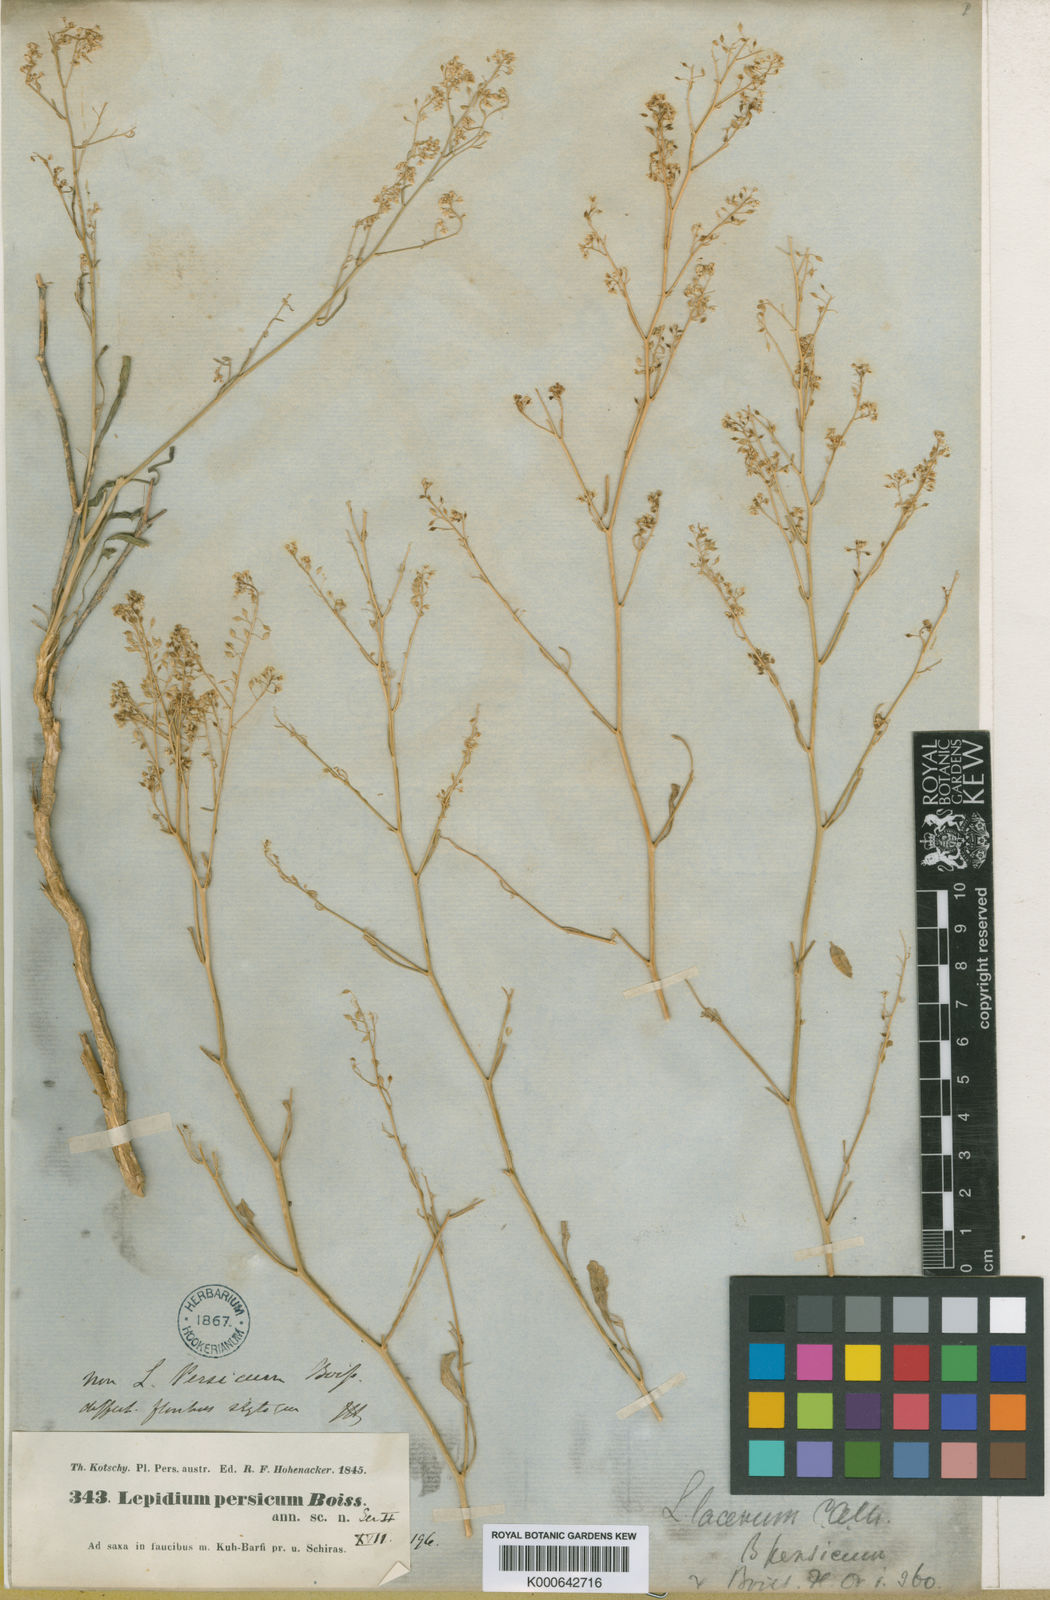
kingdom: Plantae
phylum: Tracheophyta
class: Magnoliopsida
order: Brassicales
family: Brassicaceae
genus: Lepidium
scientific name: Lepidium lacerum
